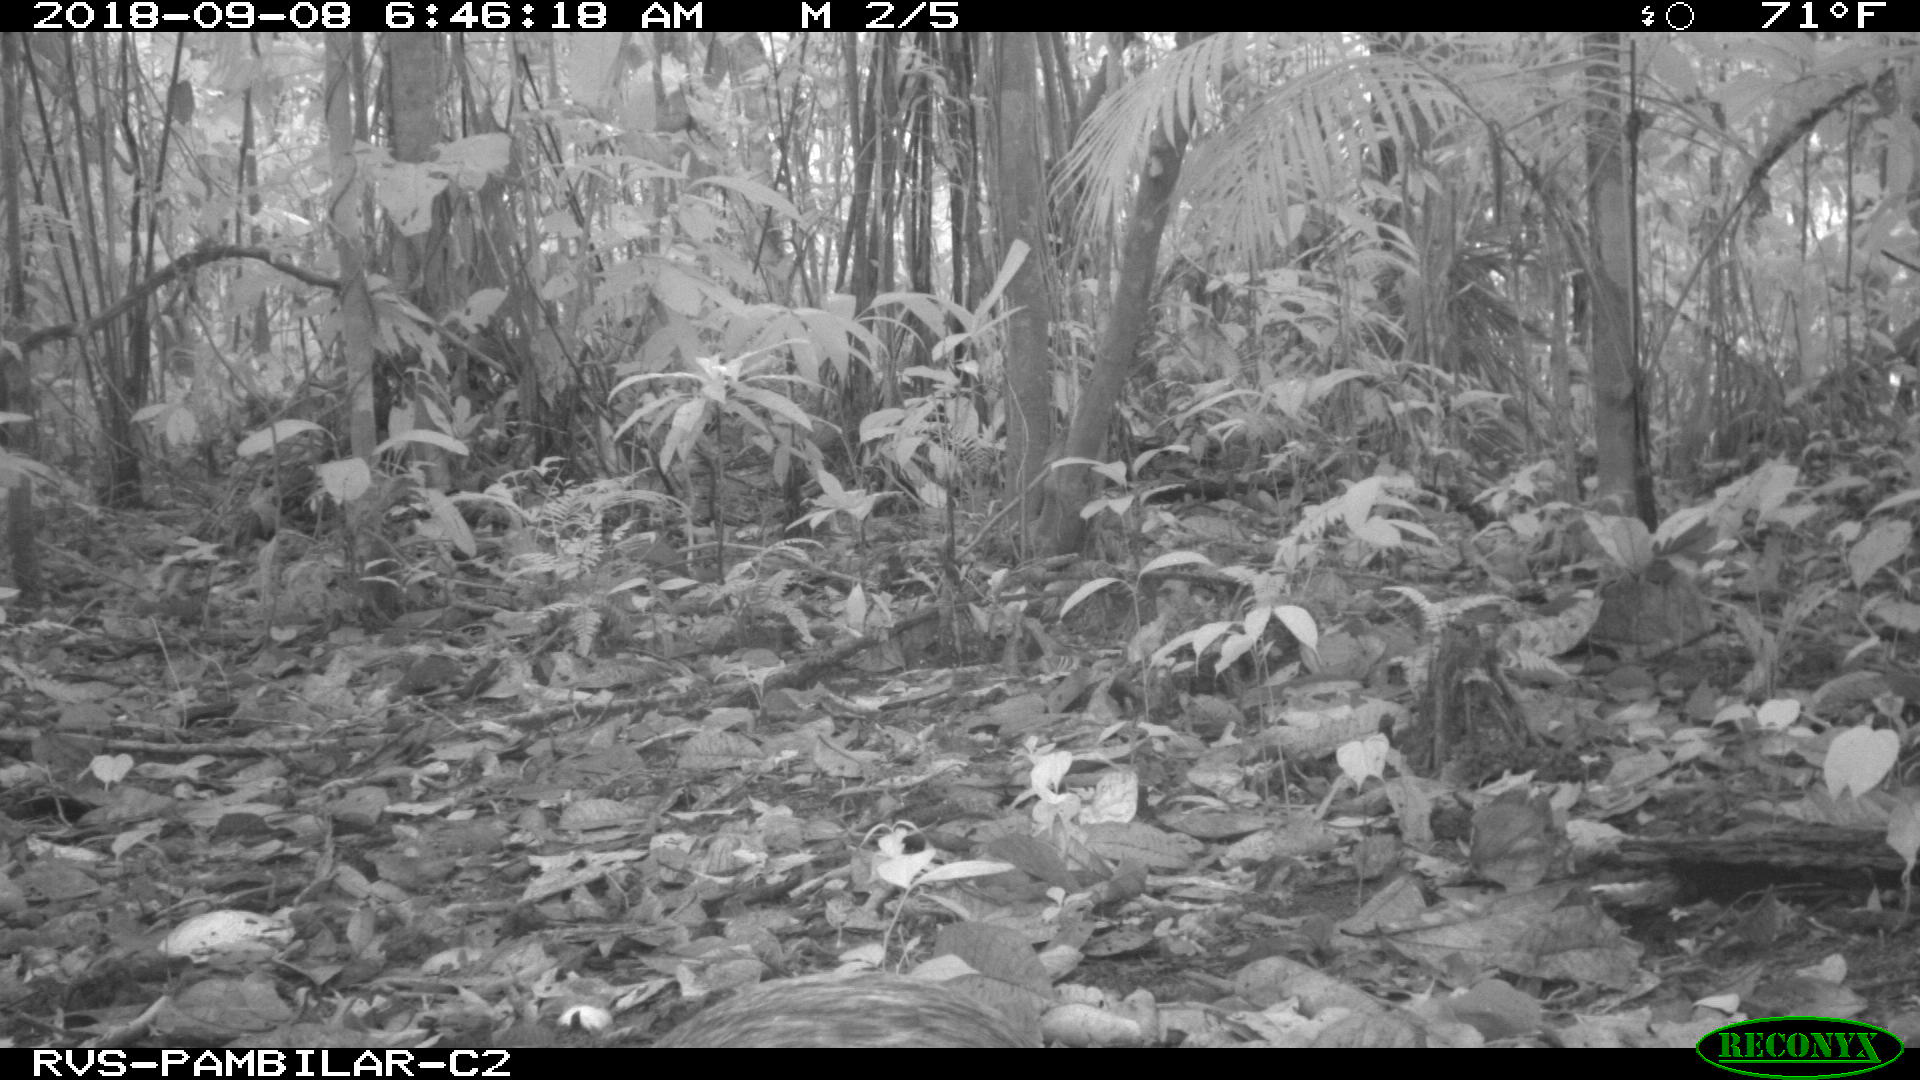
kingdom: Animalia
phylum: Chordata
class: Mammalia
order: Rodentia
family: Dasyproctidae
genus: Dasyprocta
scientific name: Dasyprocta punctata
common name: Central american agouti
